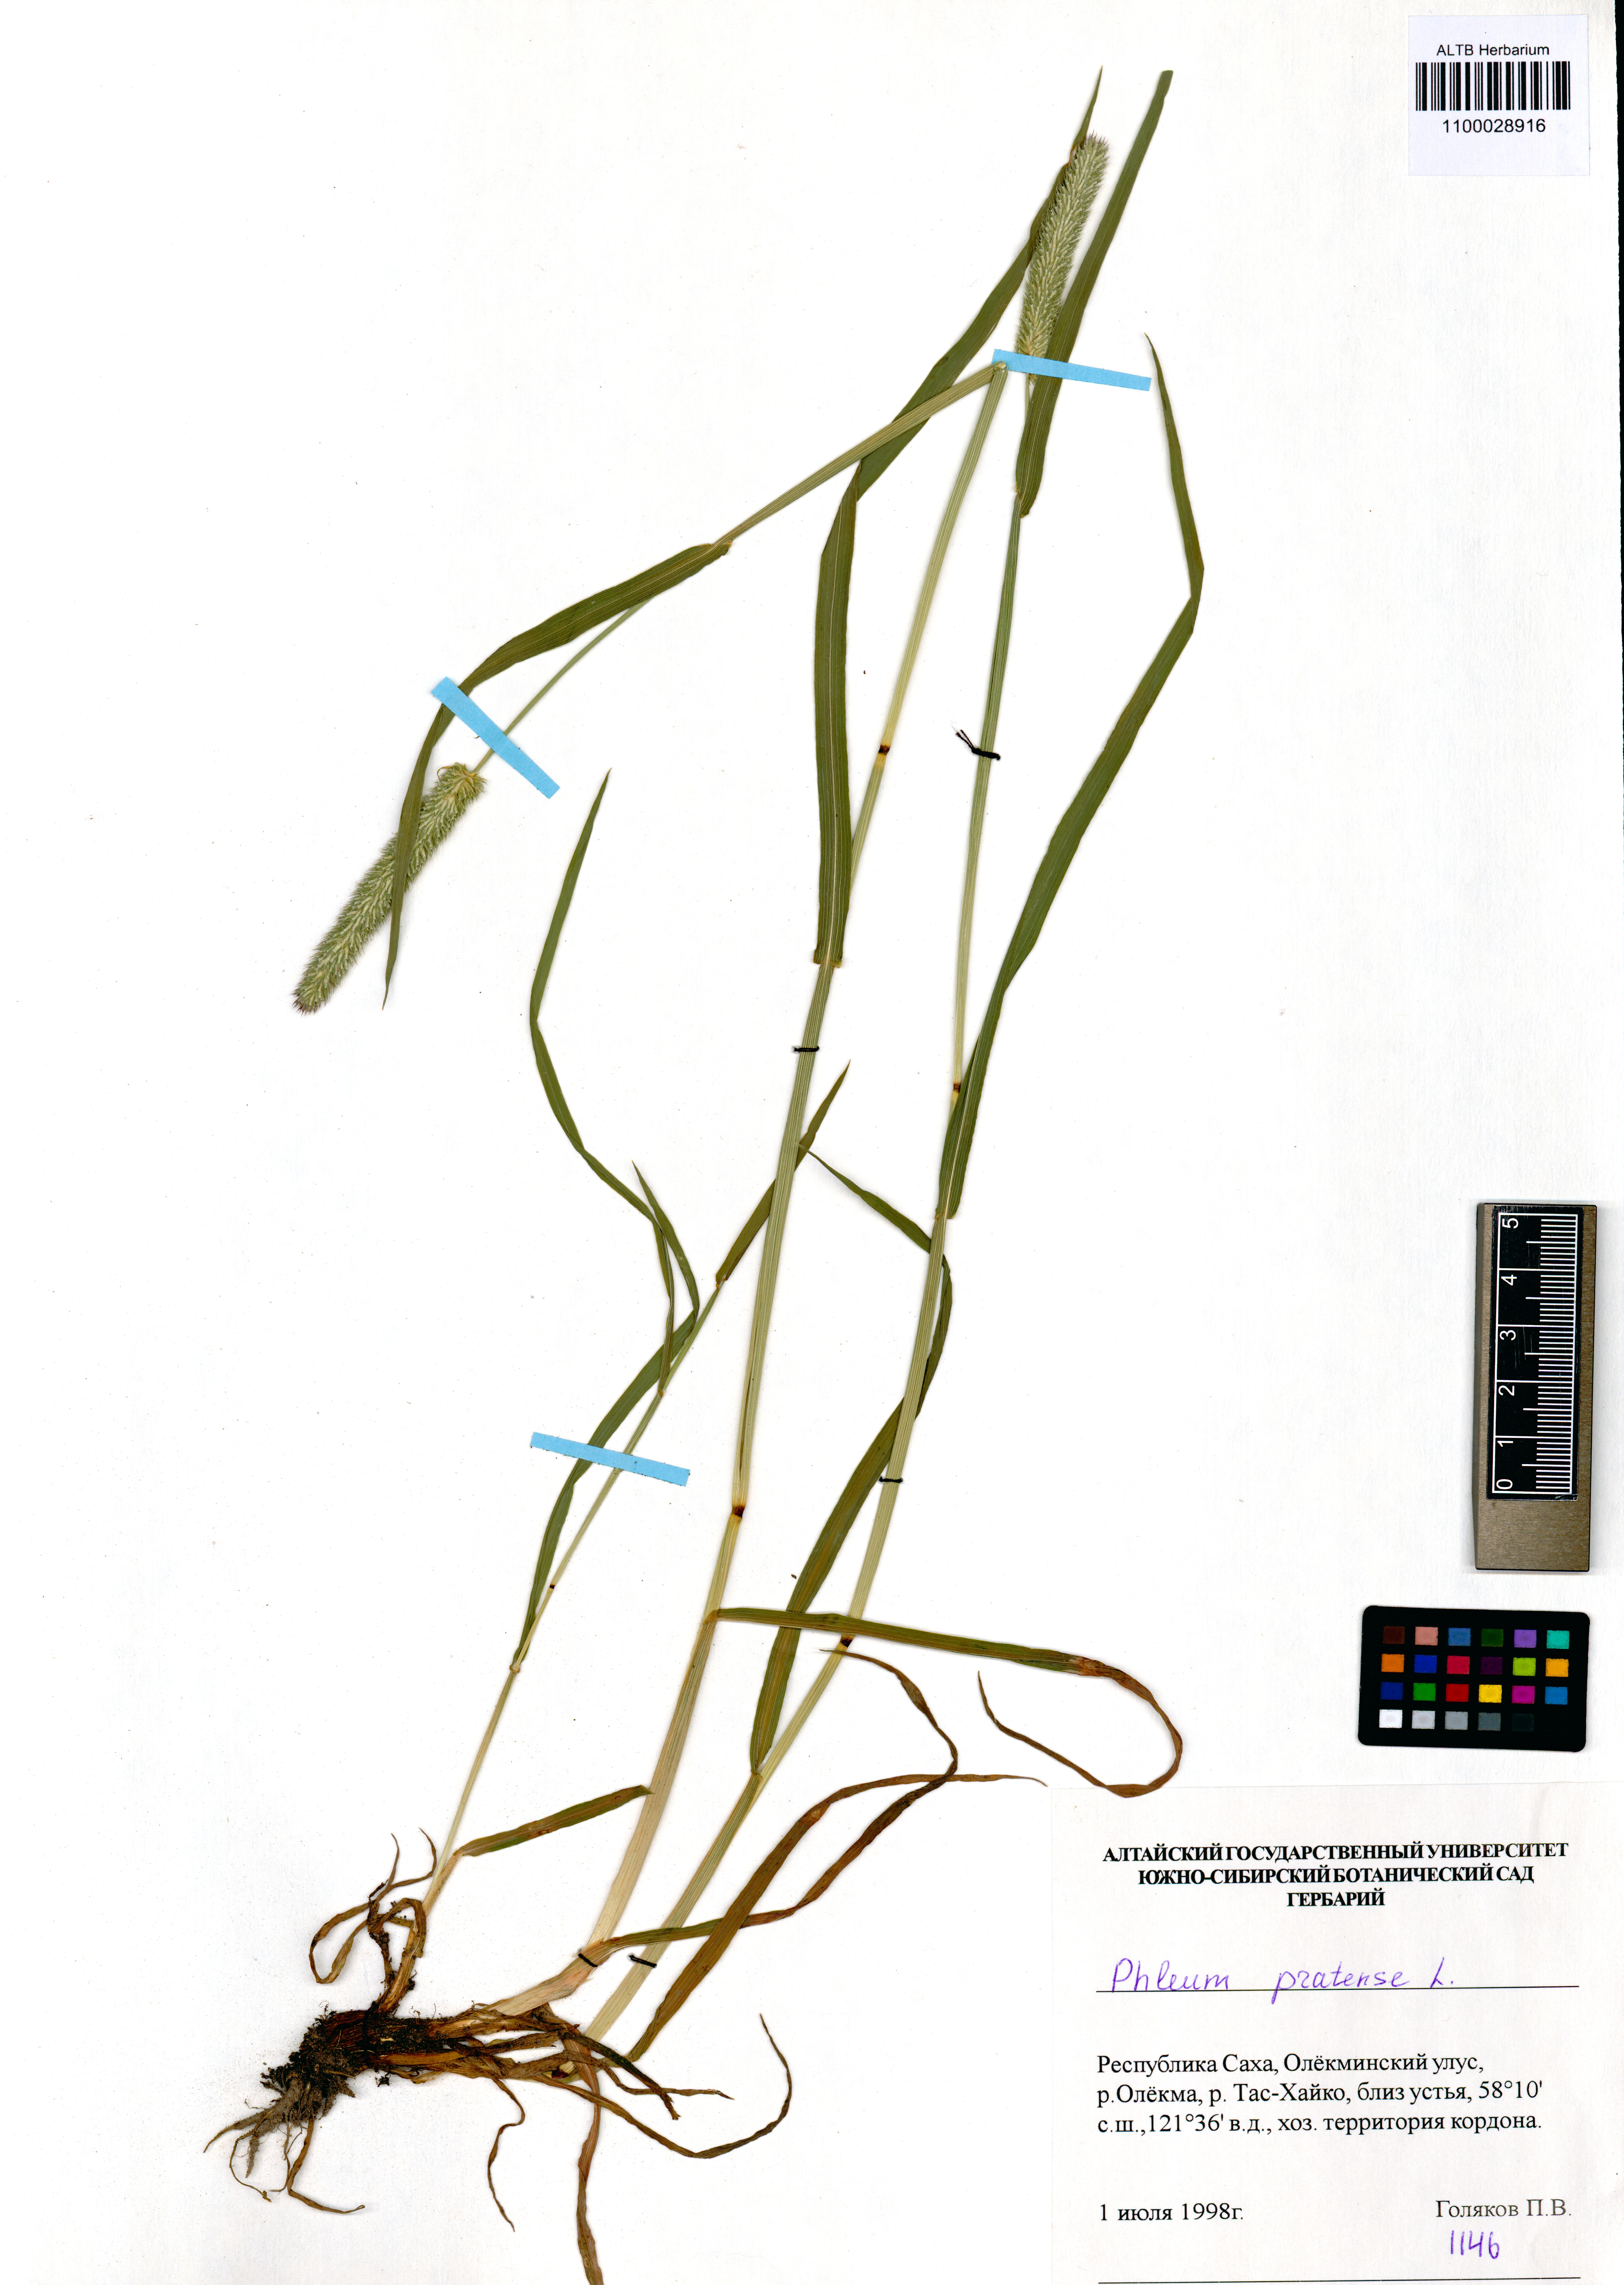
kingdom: Plantae
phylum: Tracheophyta
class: Liliopsida
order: Poales
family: Poaceae
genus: Phleum
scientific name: Phleum pratense
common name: Timothy grass
